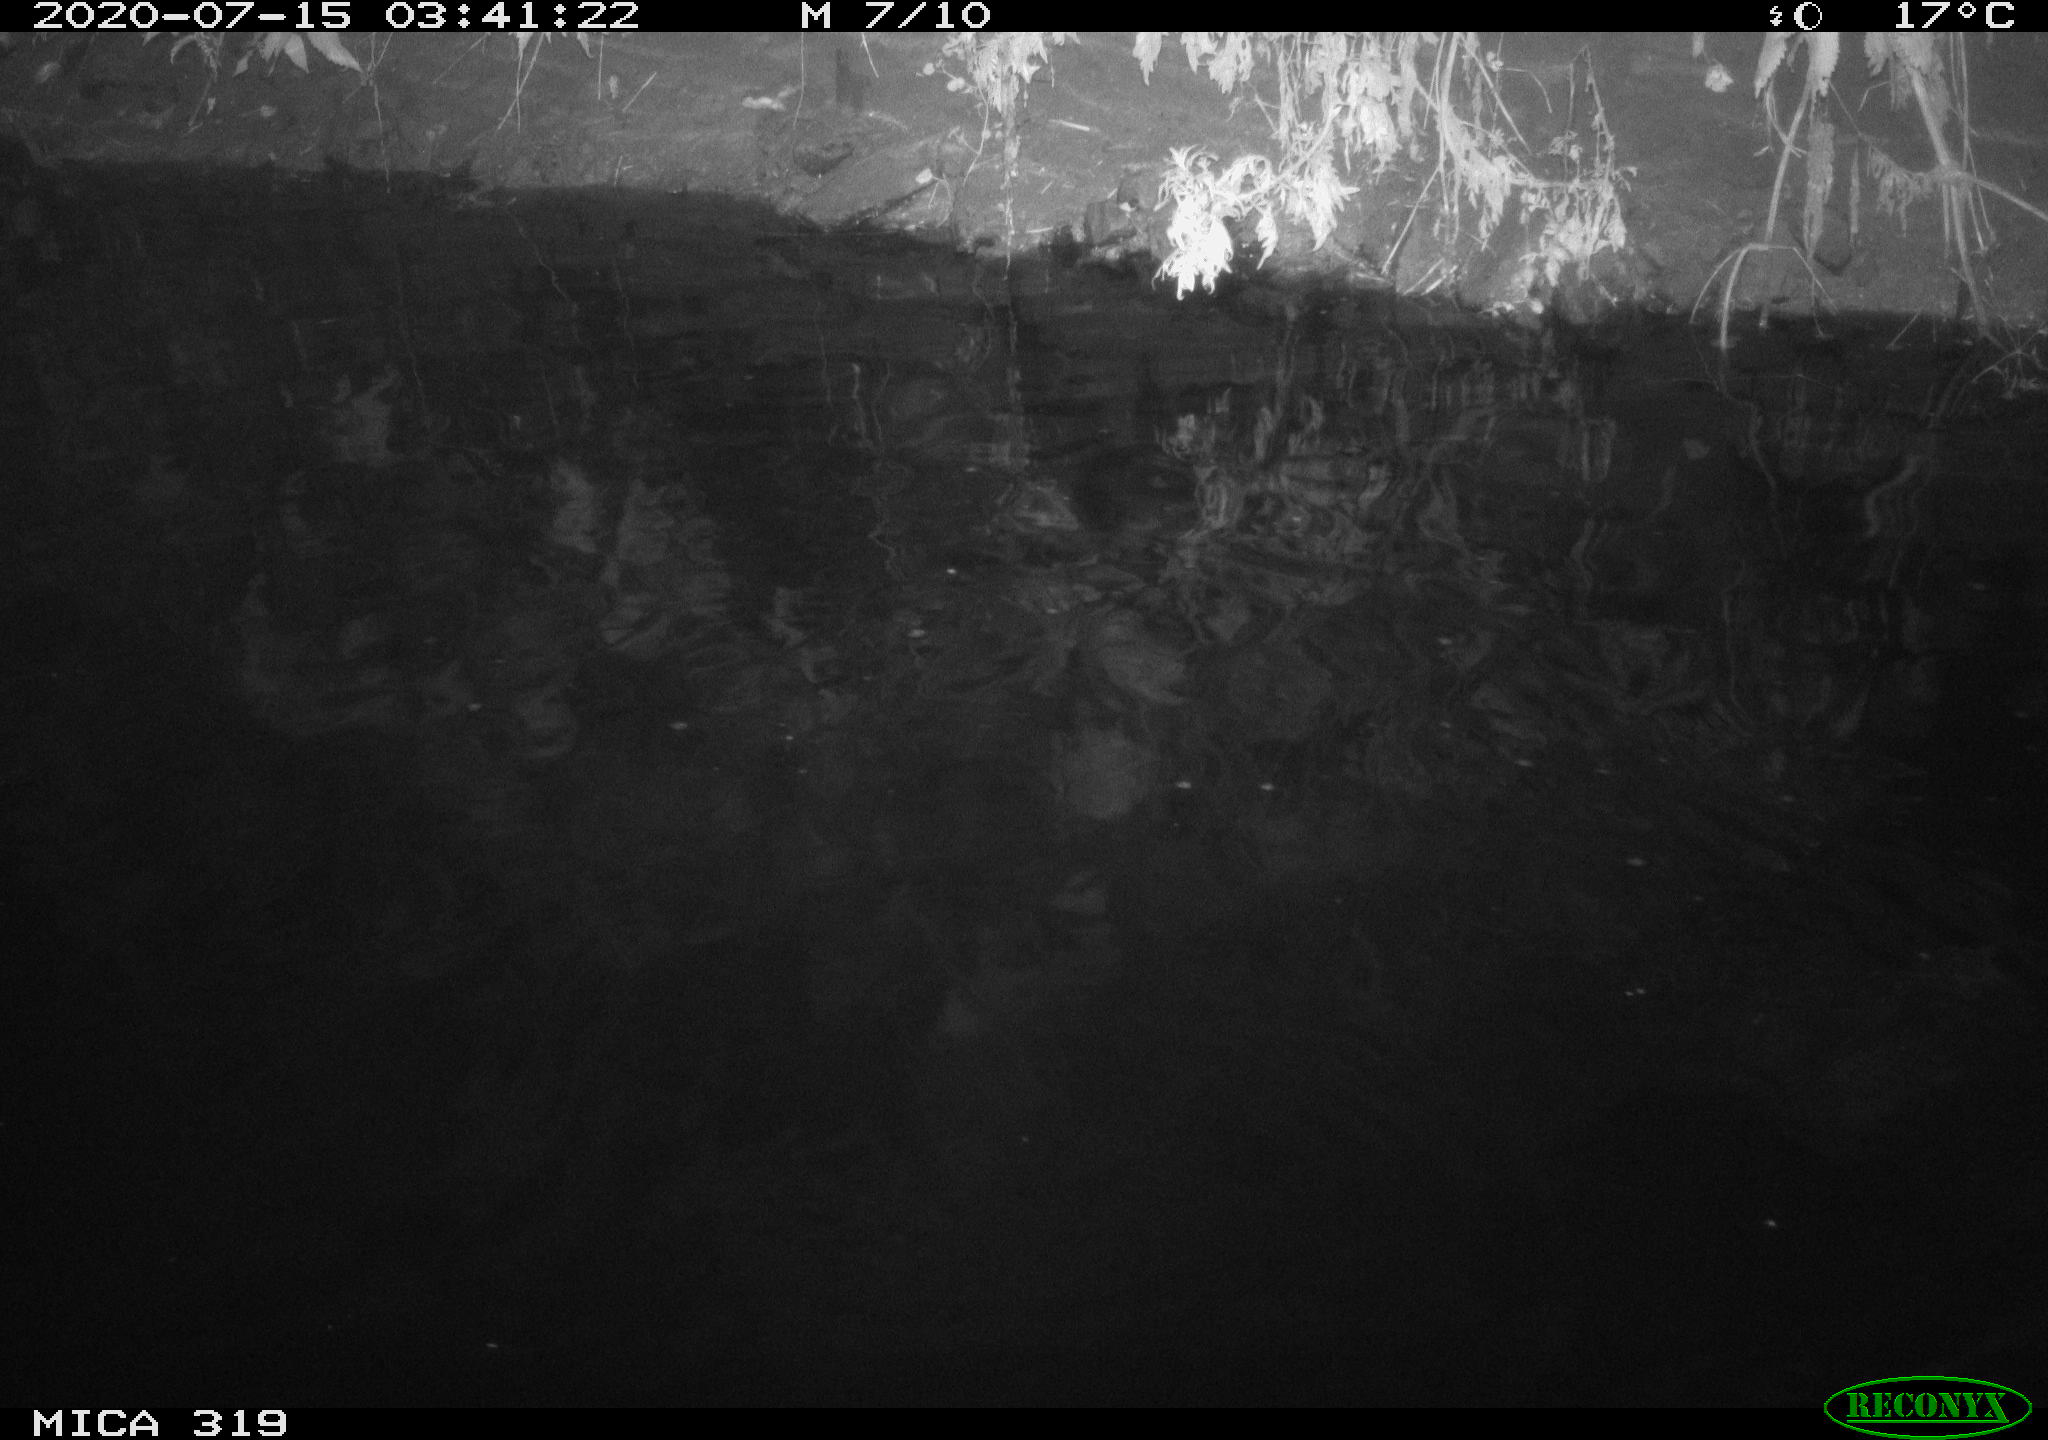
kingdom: Animalia
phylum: Chordata
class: Aves
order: Anseriformes
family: Anatidae
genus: Anas
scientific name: Anas platyrhynchos
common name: Mallard
